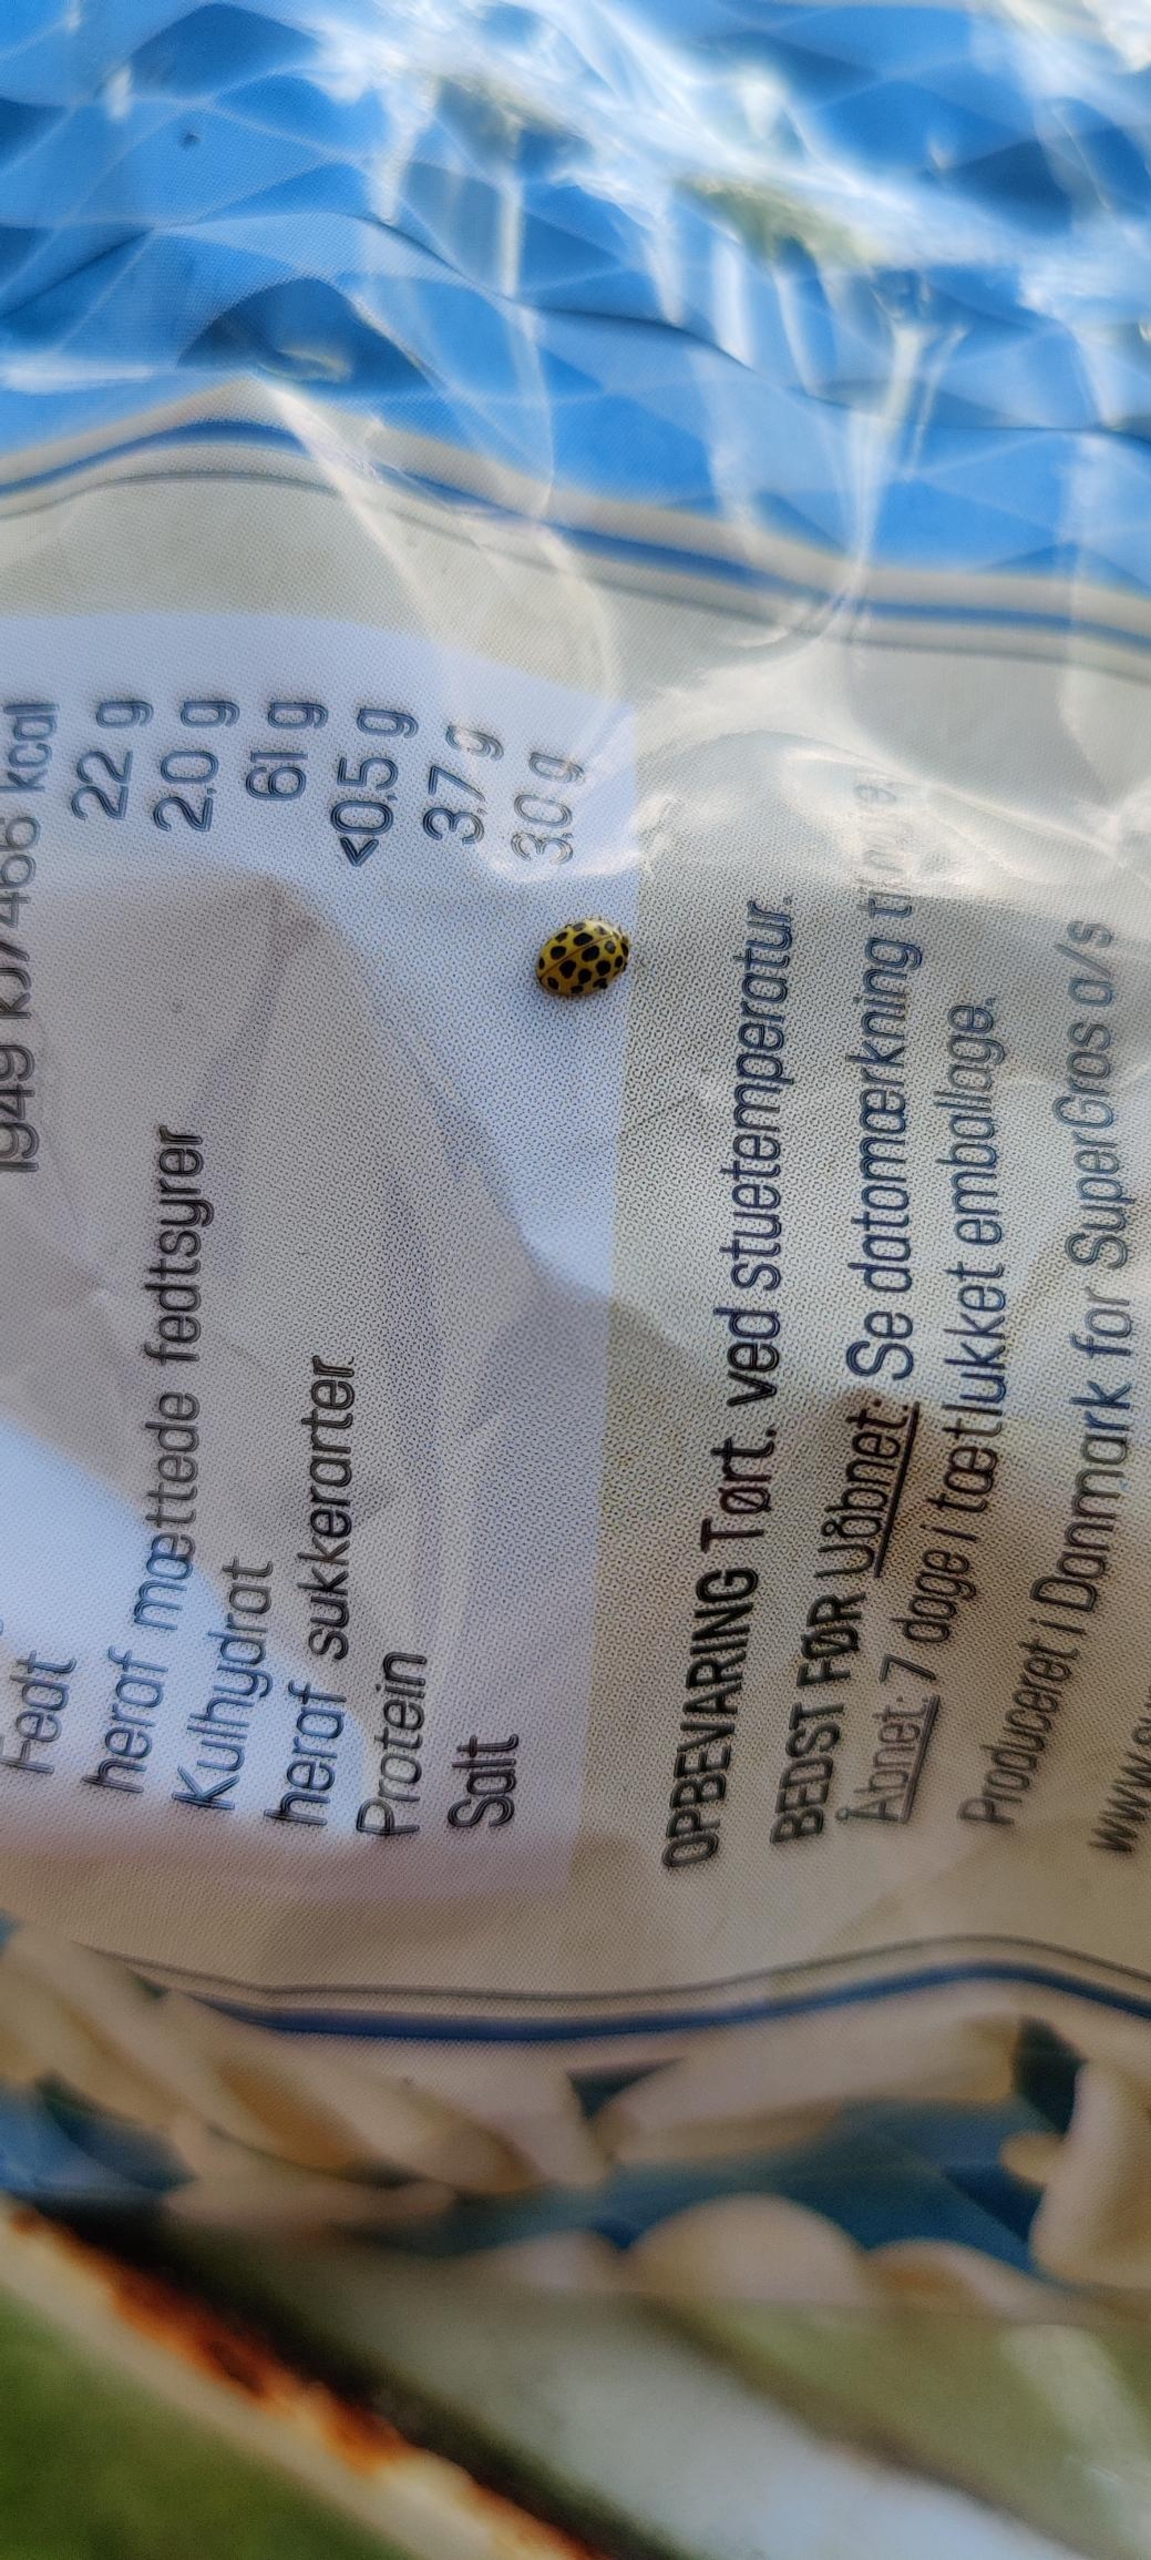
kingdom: Animalia
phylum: Arthropoda
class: Insecta
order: Coleoptera
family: Coccinellidae
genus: Psyllobora
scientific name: Psyllobora vigintiduopunctata
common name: Toogtyveplettet mariehøne
